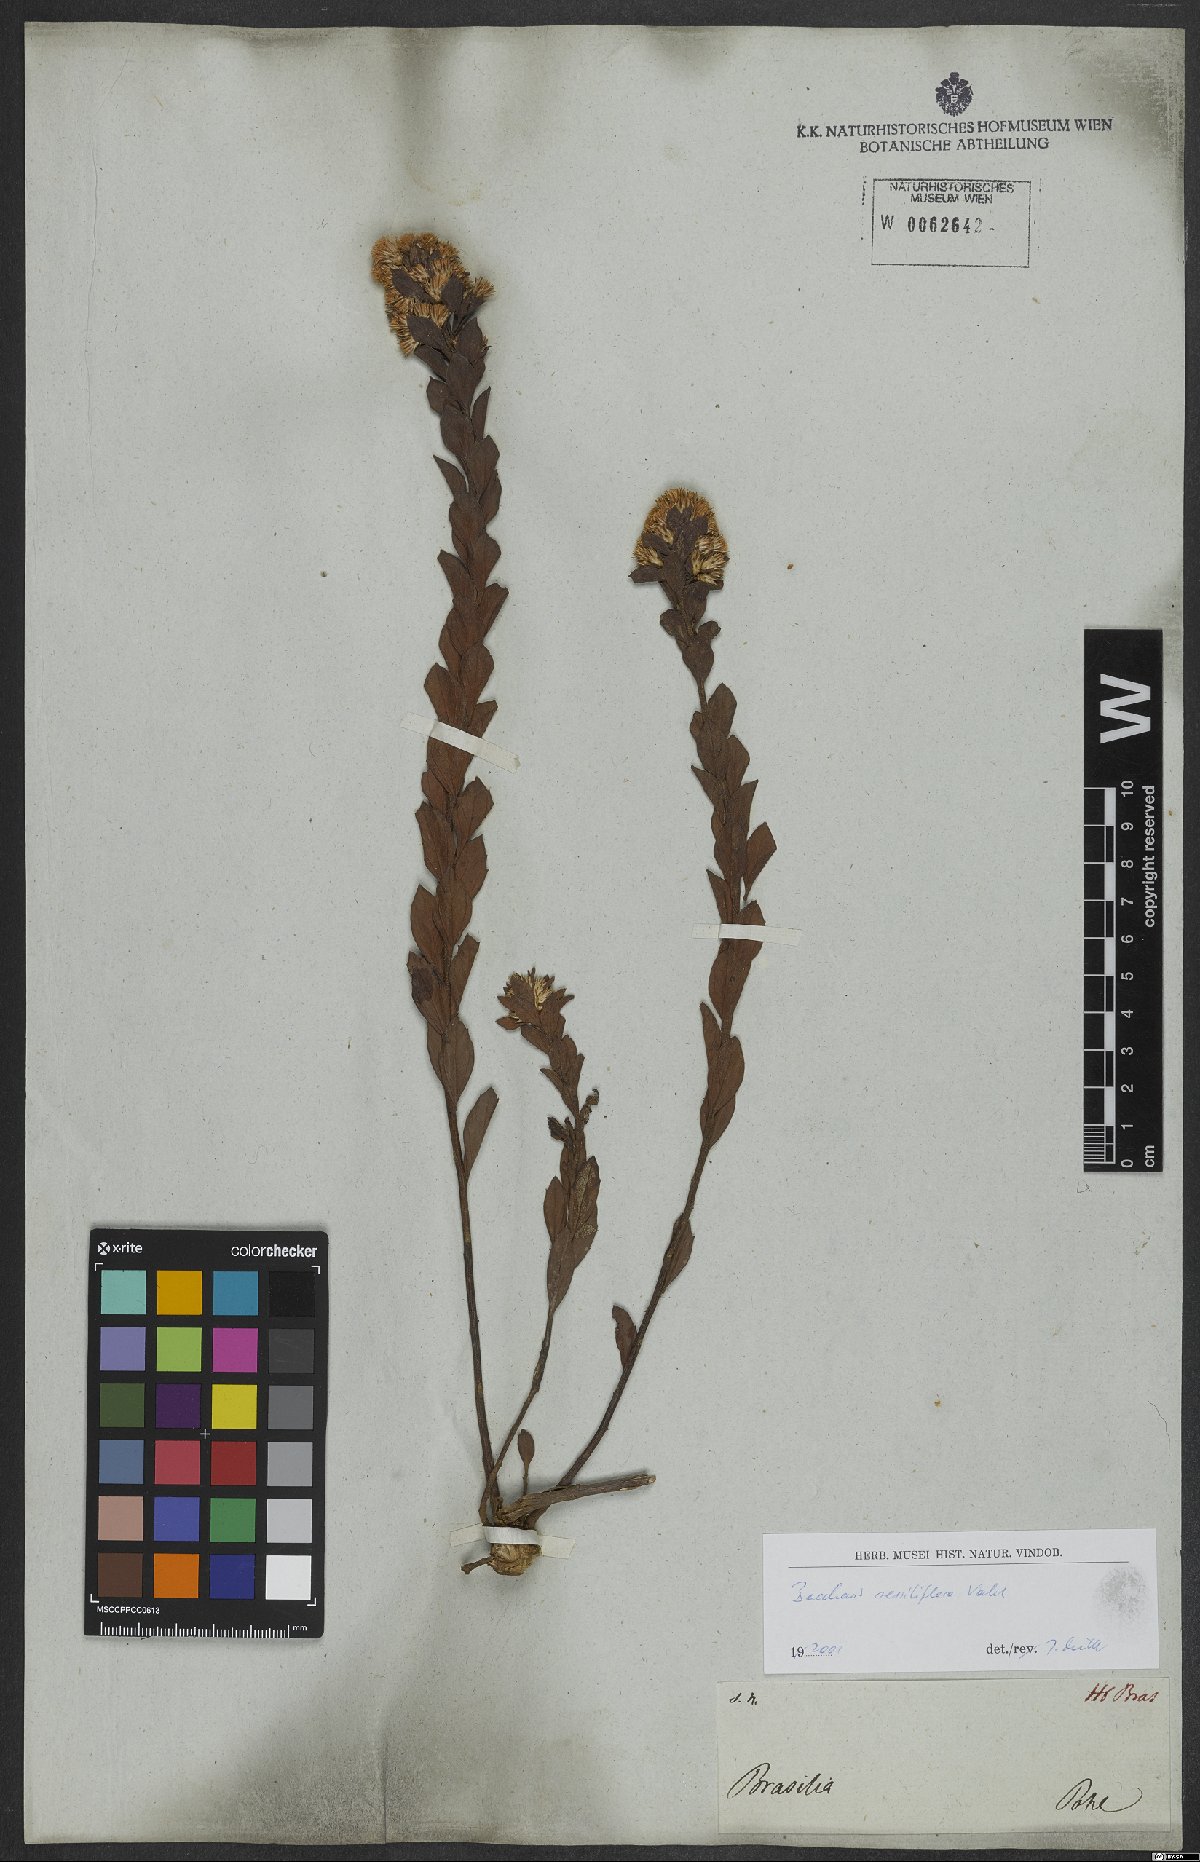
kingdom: Plantae
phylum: Tracheophyta
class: Magnoliopsida
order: Asterales
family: Asteraceae
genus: Baccharis
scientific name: Baccharis sessiliflora
